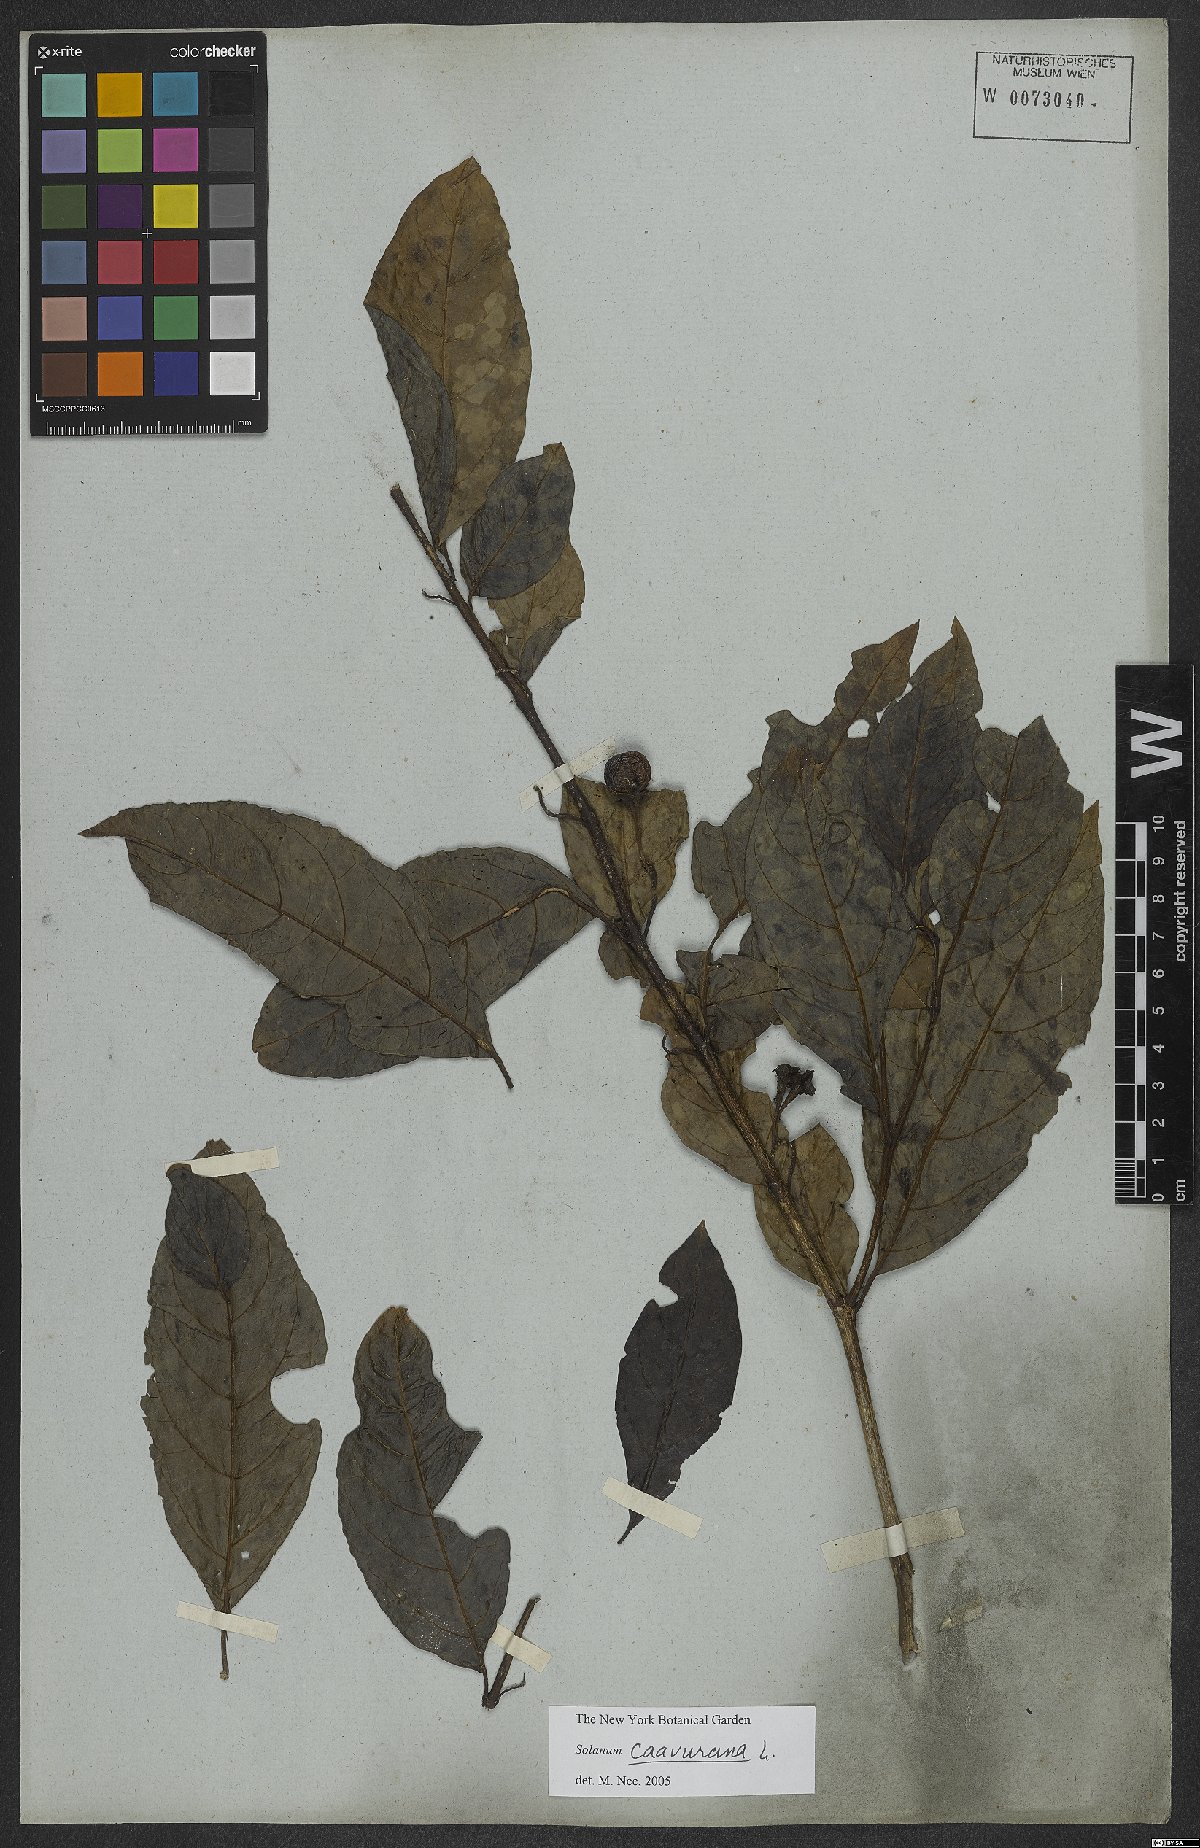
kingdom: Plantae
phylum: Tracheophyta
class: Magnoliopsida
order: Solanales
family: Solanaceae
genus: Solanum
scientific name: Solanum caavurana
